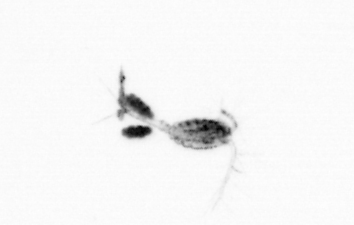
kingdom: Animalia
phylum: Arthropoda
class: Copepoda
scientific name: Copepoda
